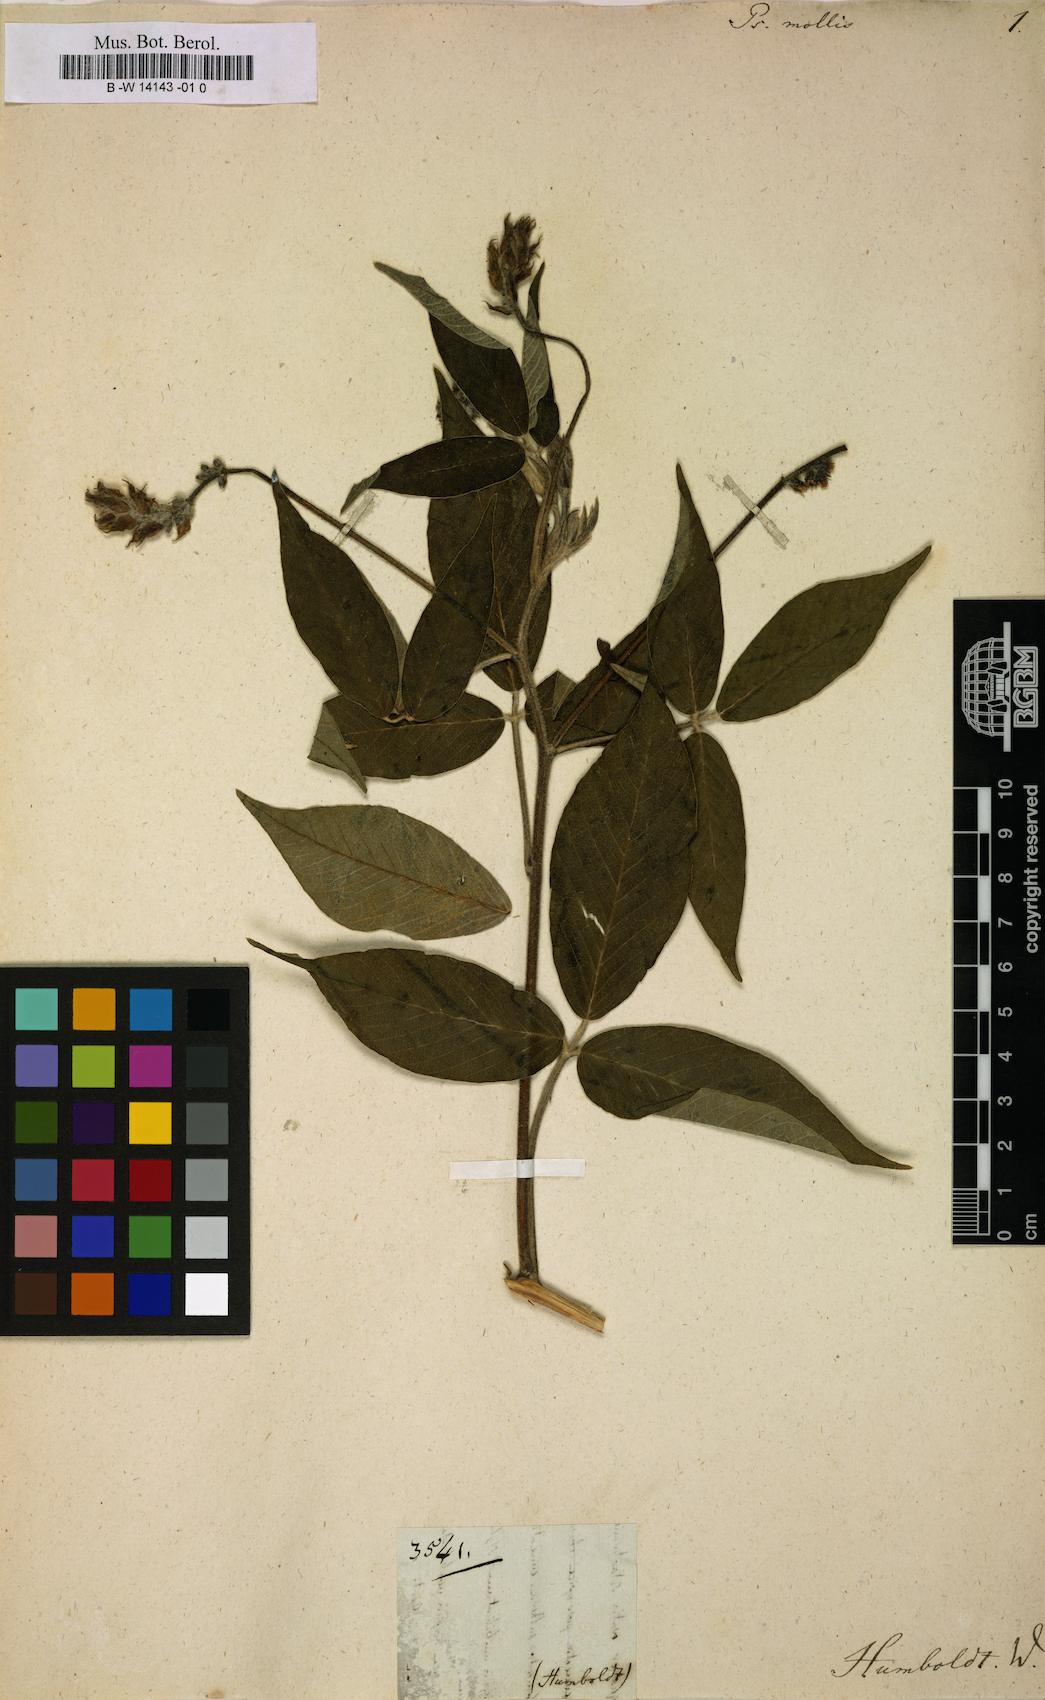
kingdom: Plantae
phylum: Tracheophyta
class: Magnoliopsida
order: Fabales
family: Fabaceae
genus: Psoralea
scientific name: Psoralea mollis
